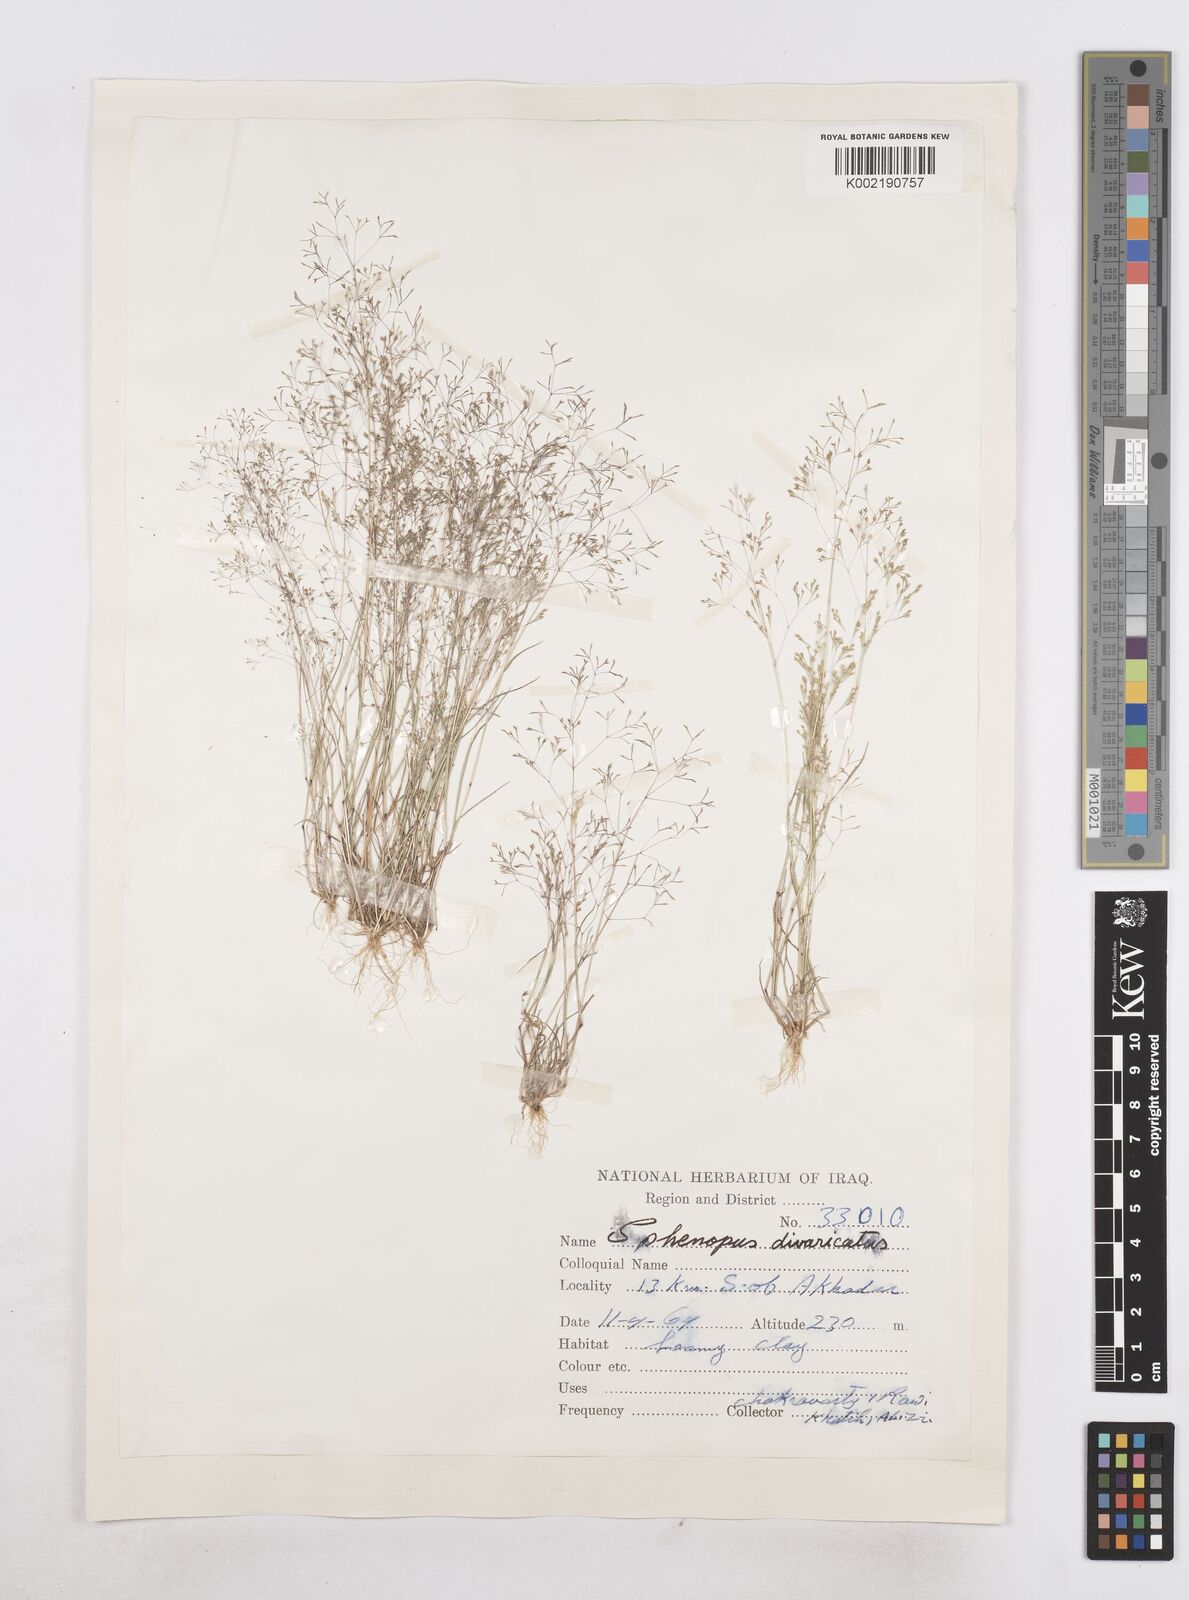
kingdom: Plantae
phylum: Tracheophyta
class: Liliopsida
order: Poales
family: Poaceae
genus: Sphenopus
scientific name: Sphenopus divaricatus
